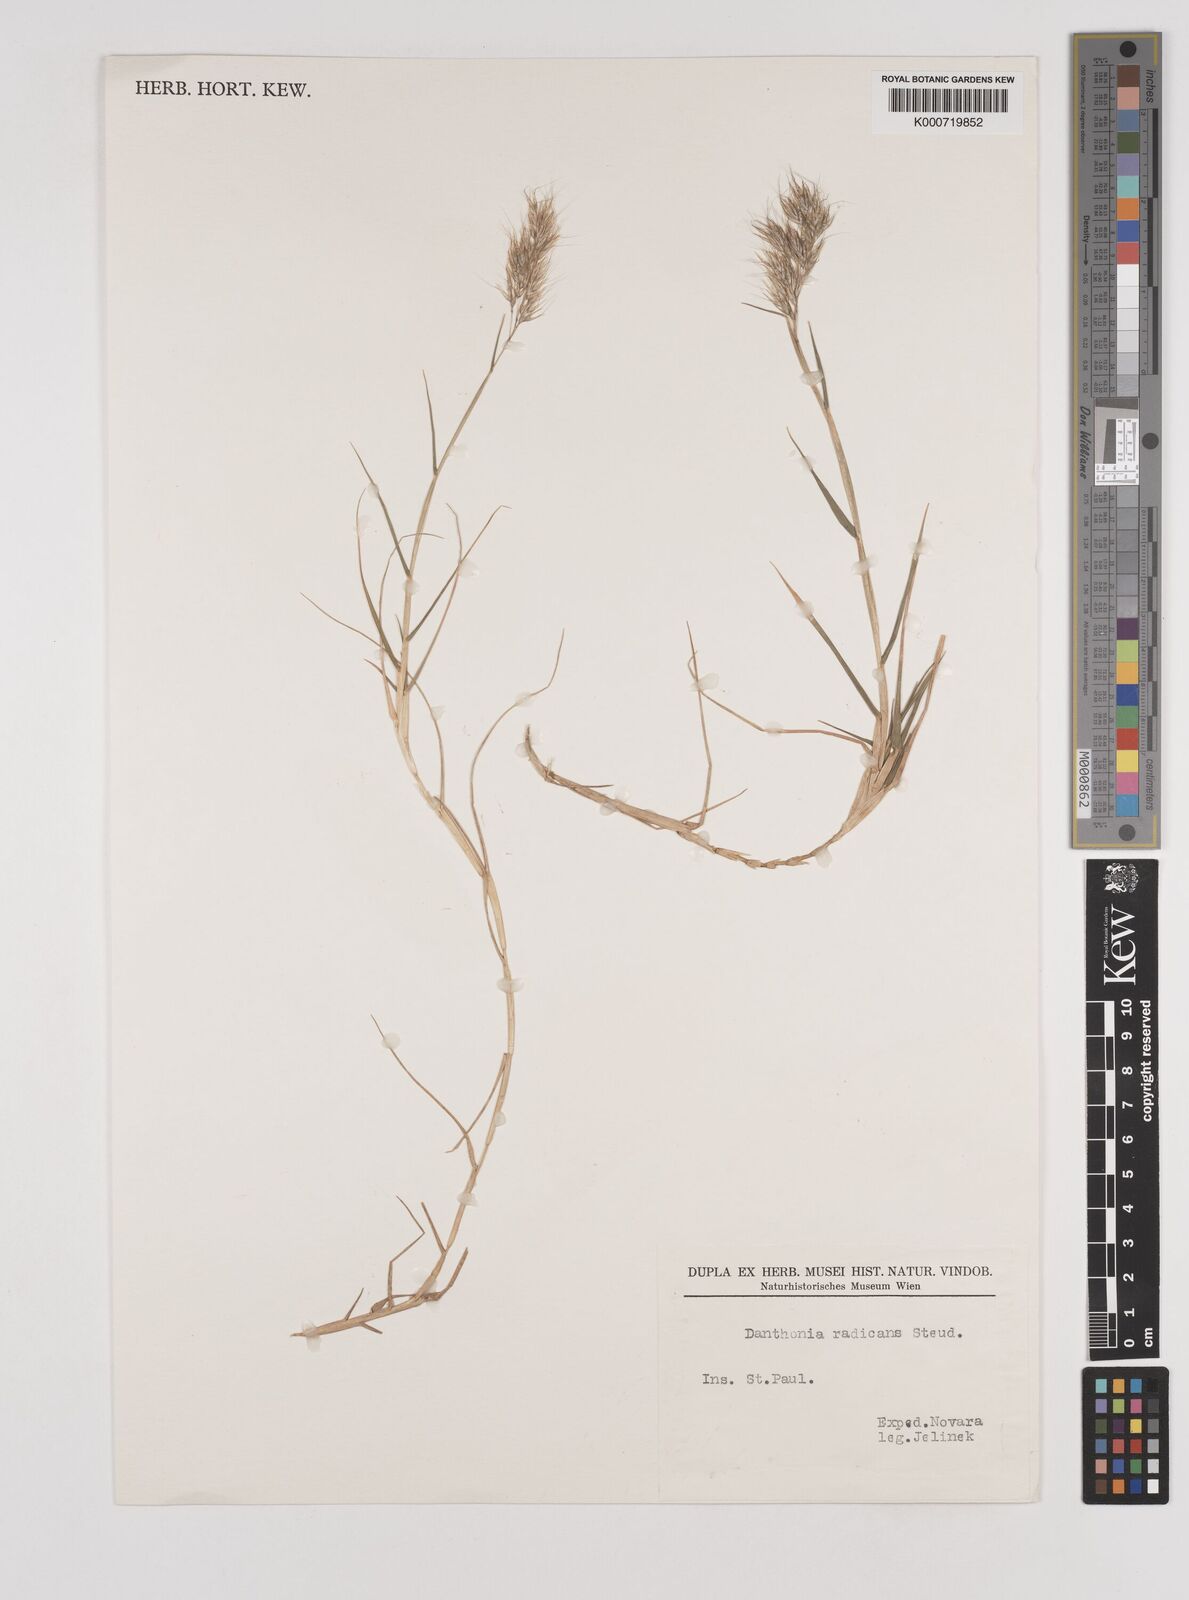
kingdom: Plantae
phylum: Tracheophyta
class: Liliopsida
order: Poales
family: Poaceae
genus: Pentameris
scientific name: Pentameris insularis
